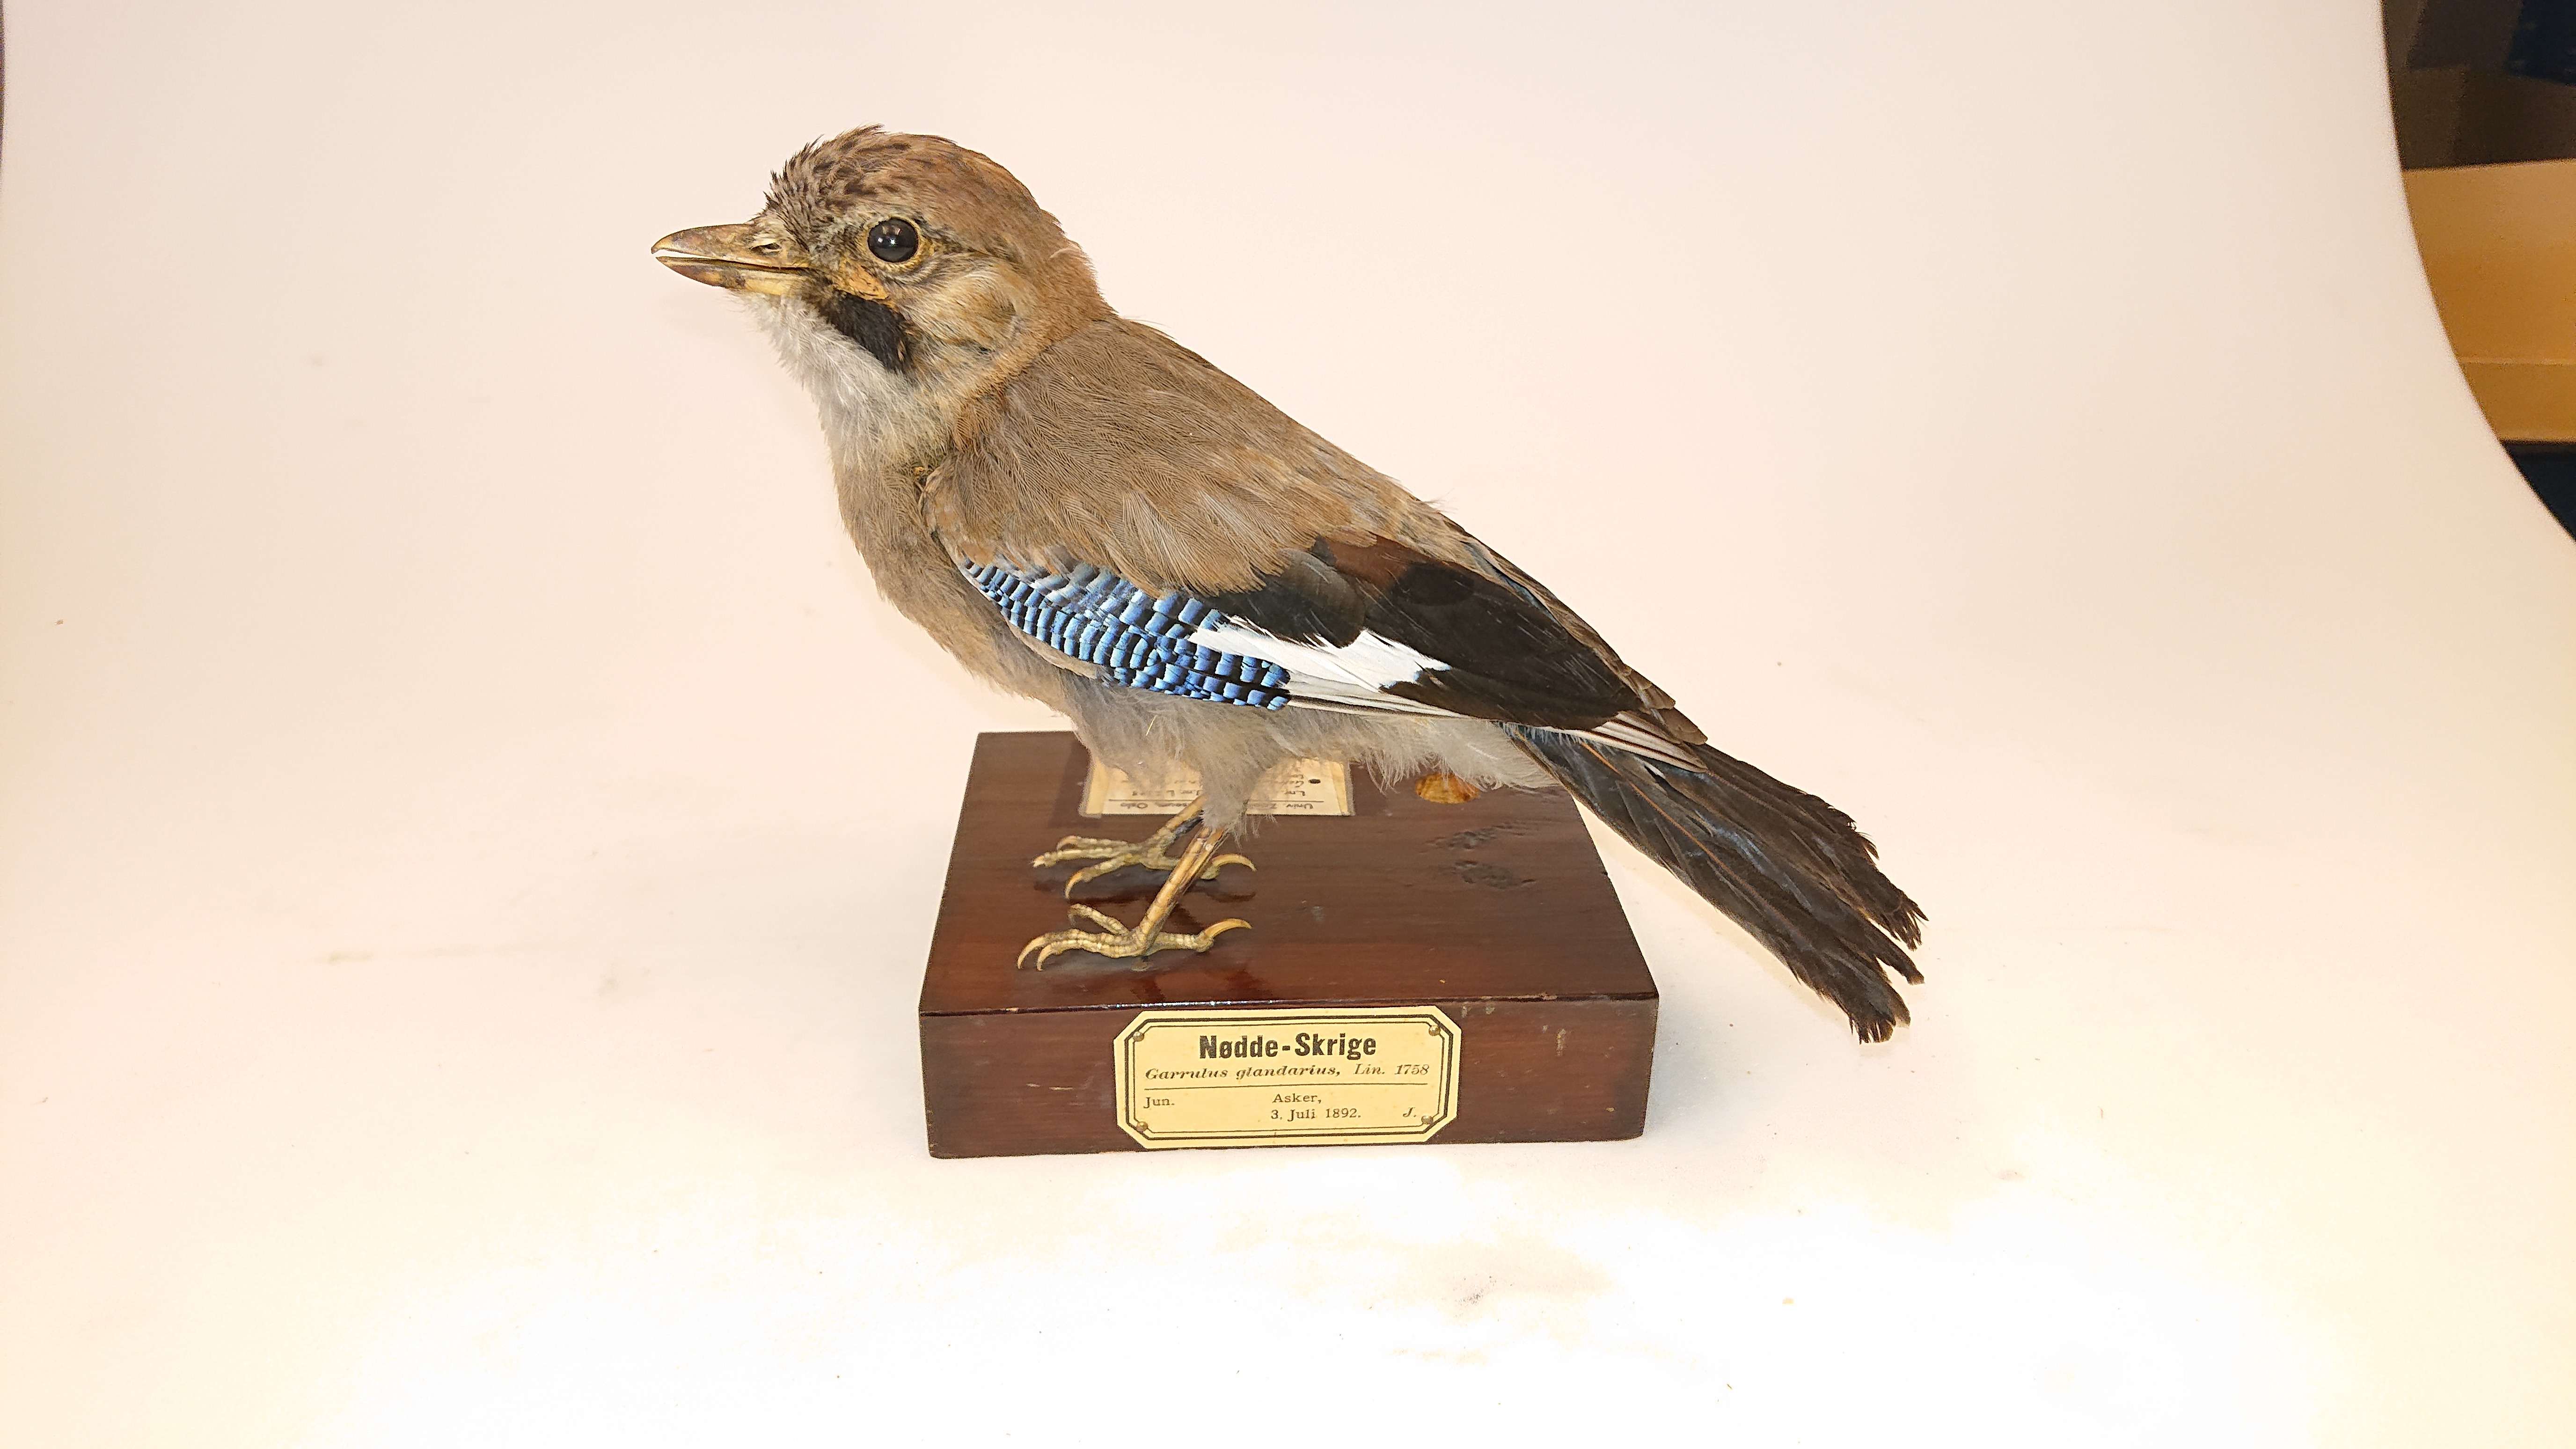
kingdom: Animalia
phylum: Chordata
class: Aves
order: Passeriformes
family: Corvidae
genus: Garrulus
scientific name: Garrulus glandarius
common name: Eurasian jay
